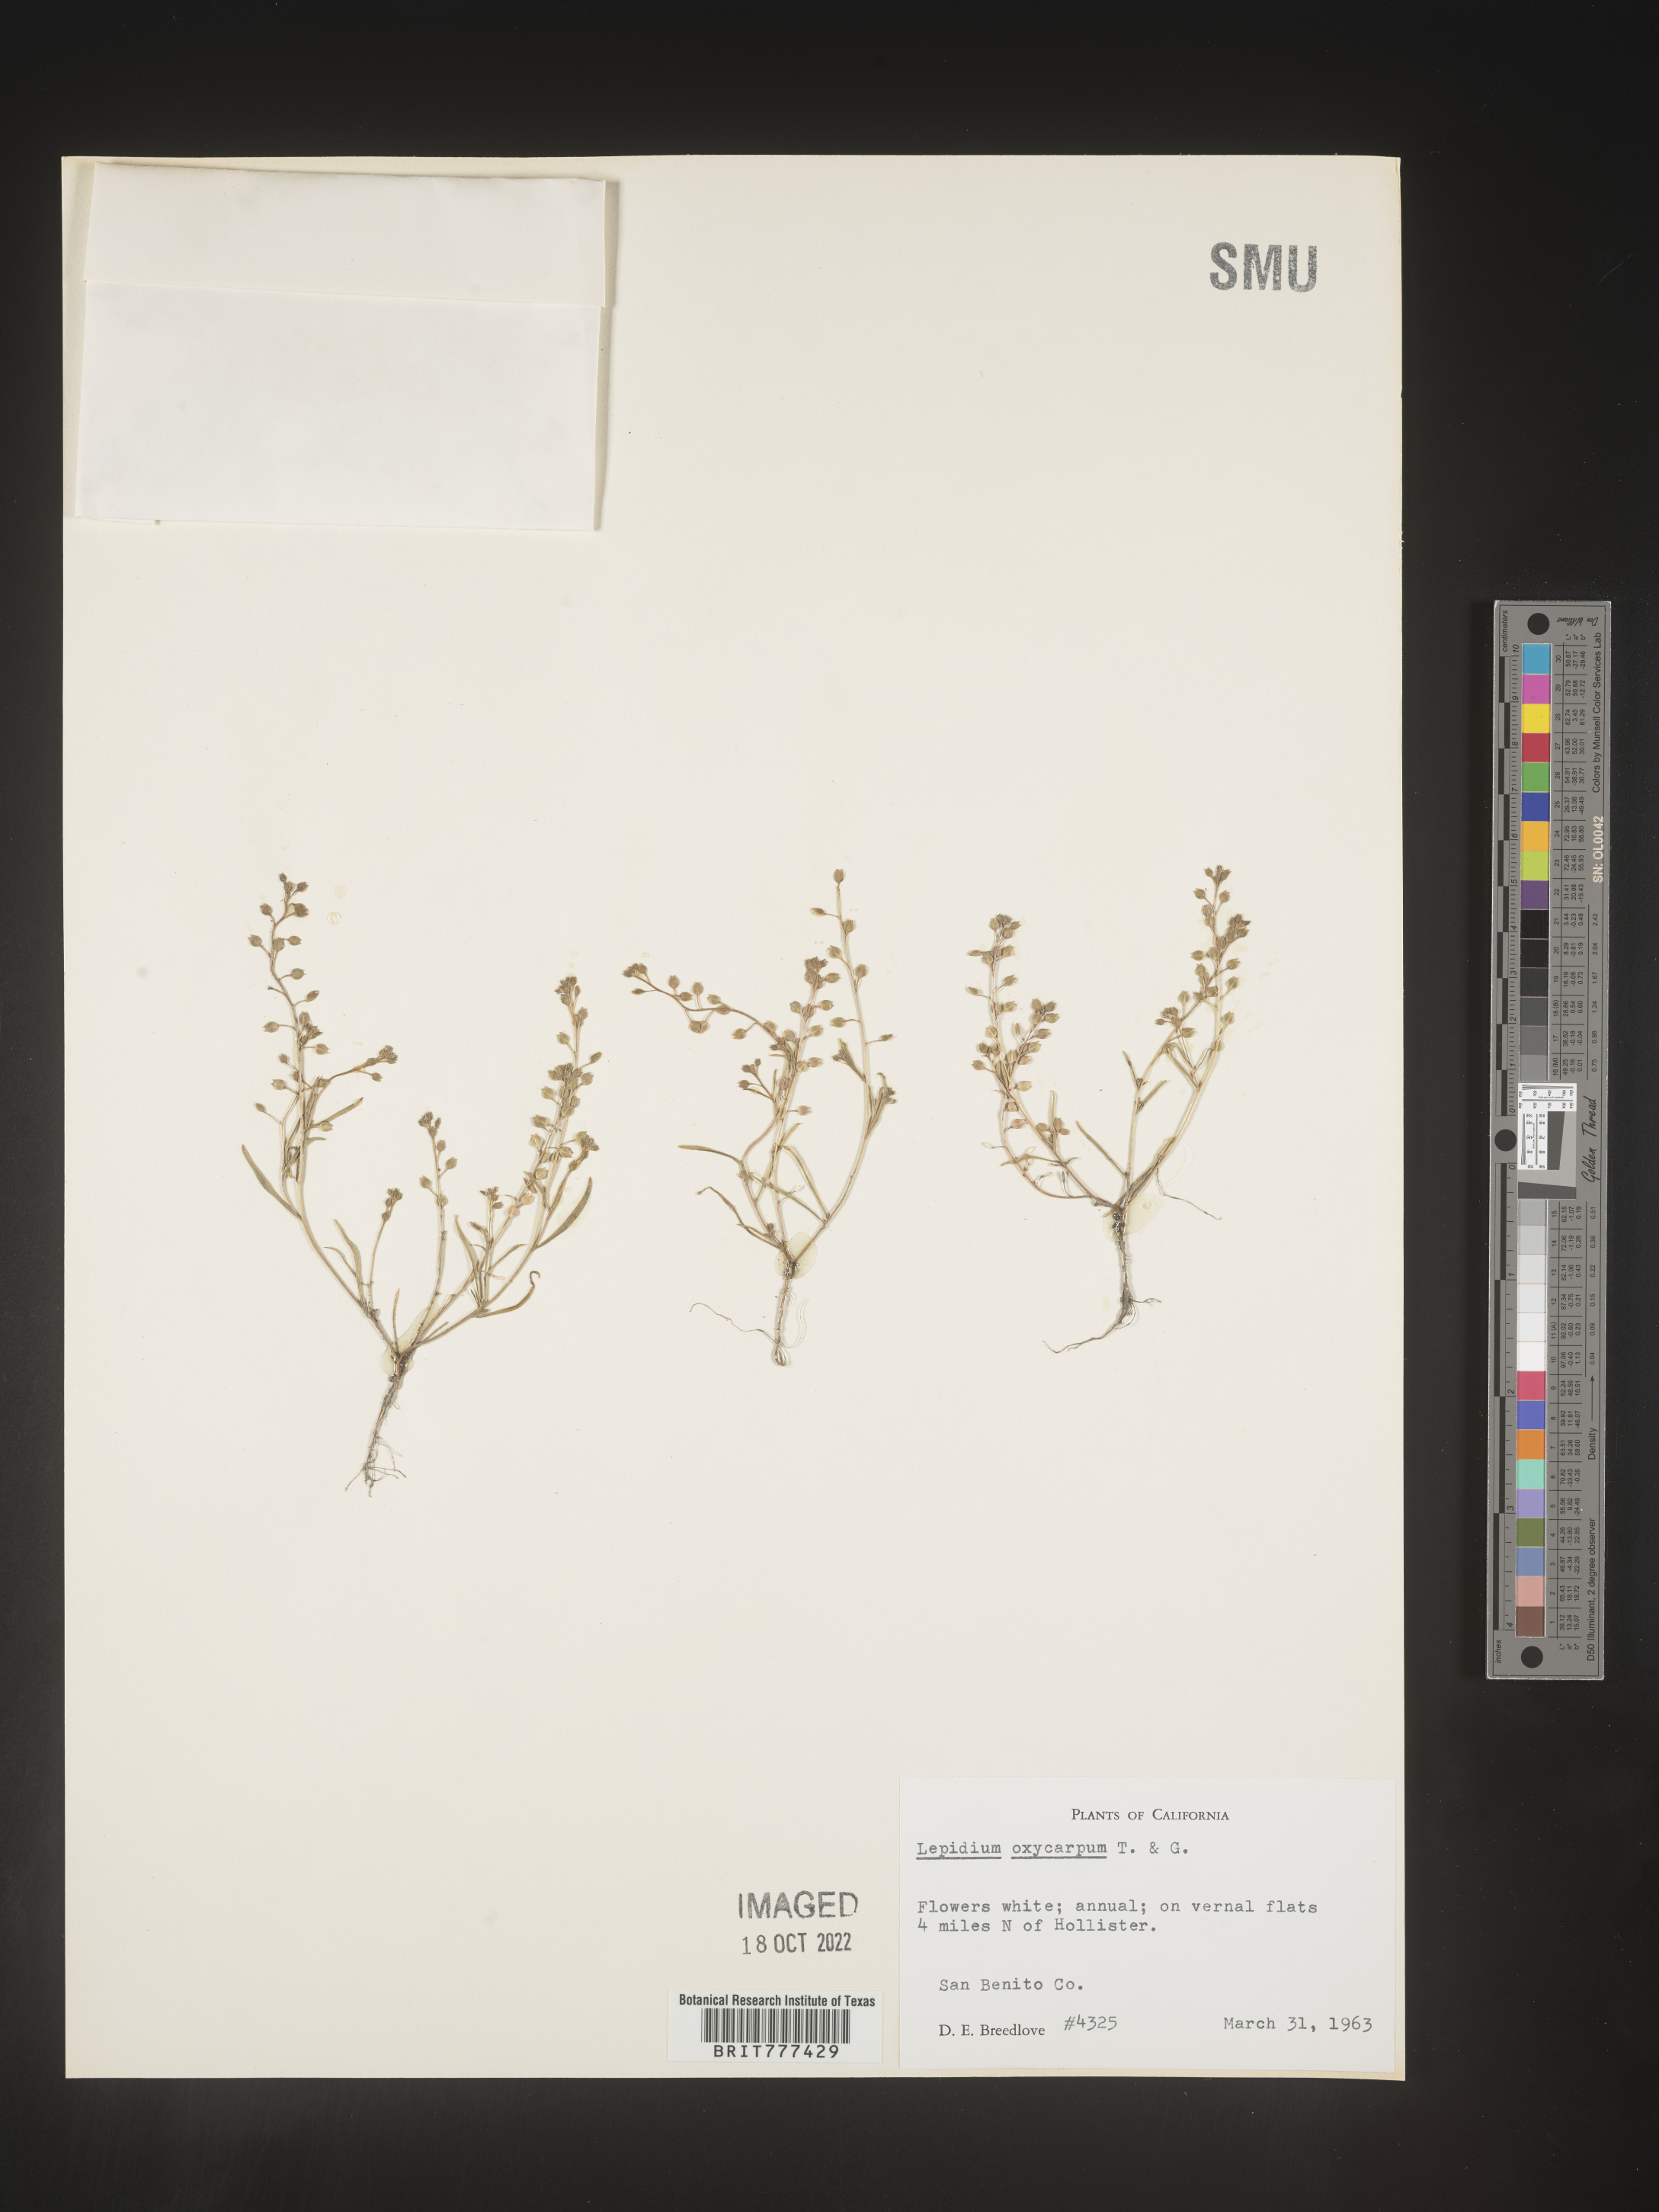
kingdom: Plantae
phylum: Tracheophyta
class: Magnoliopsida
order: Brassicales
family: Brassicaceae
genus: Lepidium
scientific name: Lepidium oxycarpum
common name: Forked peppergrass
